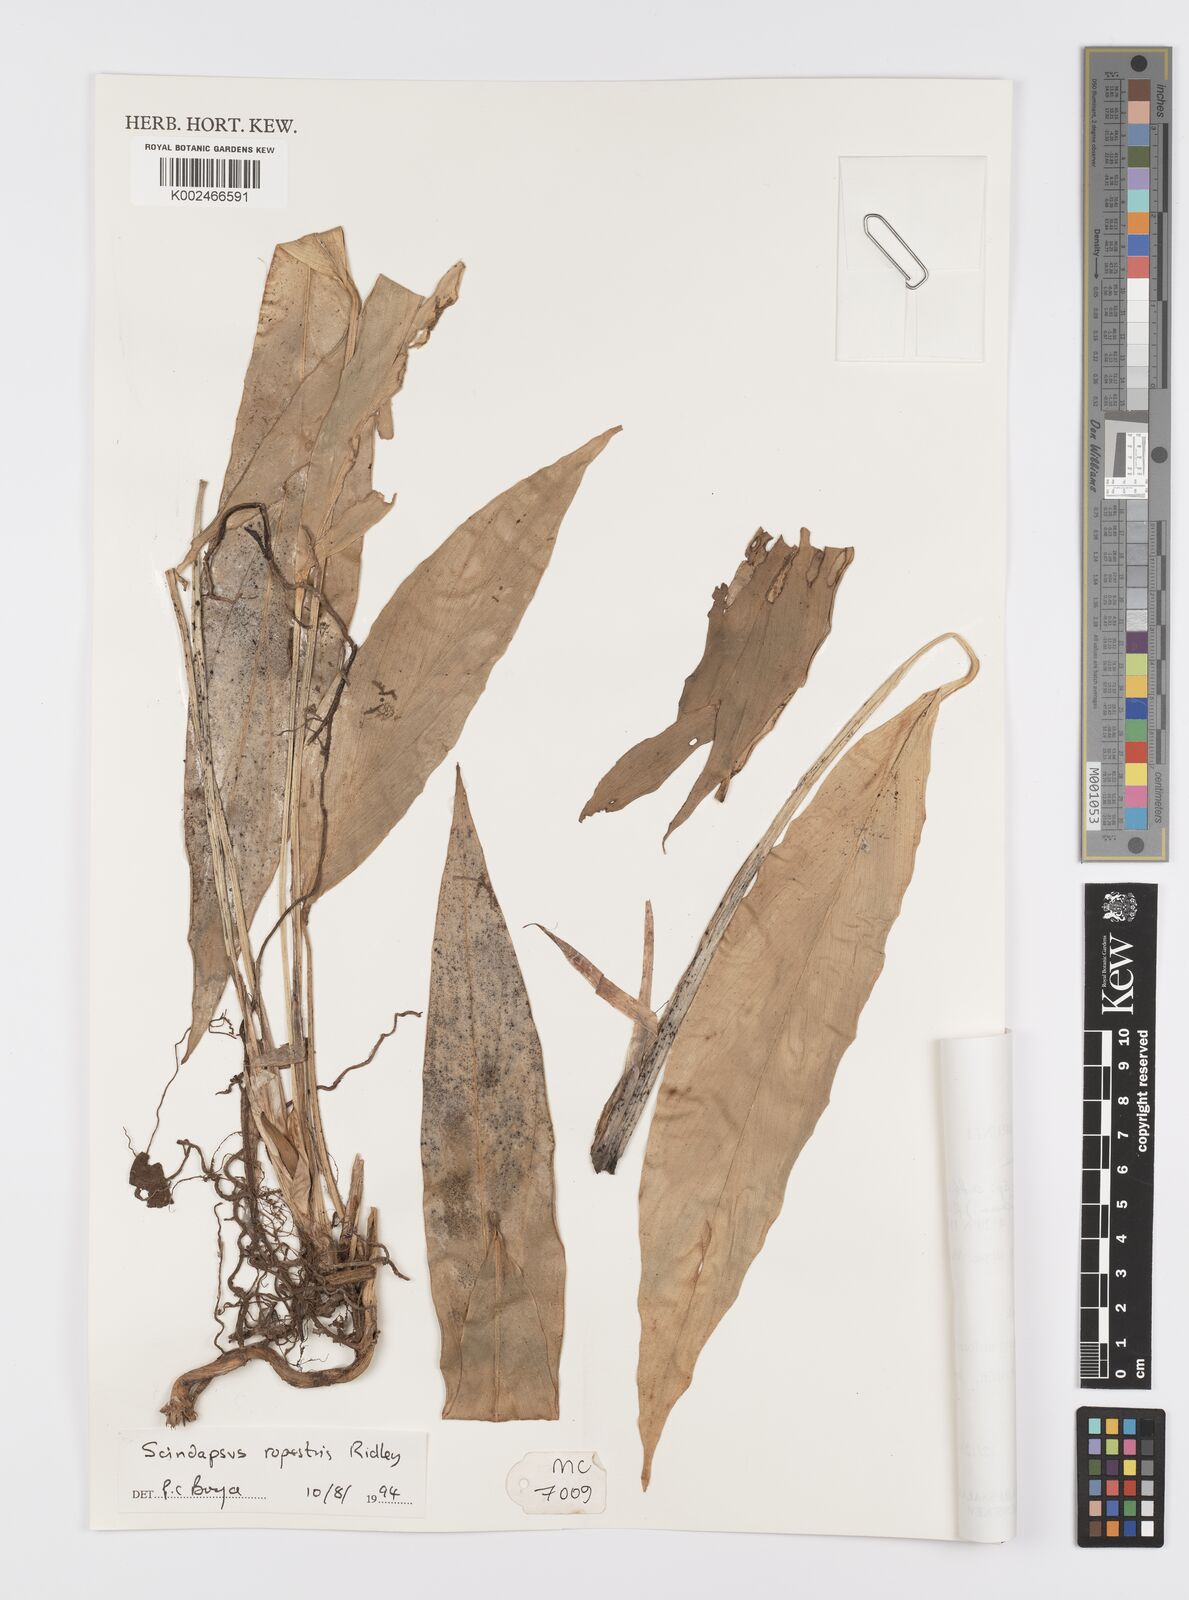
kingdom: Plantae
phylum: Tracheophyta
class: Liliopsida
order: Alismatales
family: Araceae
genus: Scindapsus
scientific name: Scindapsus sumatranus
